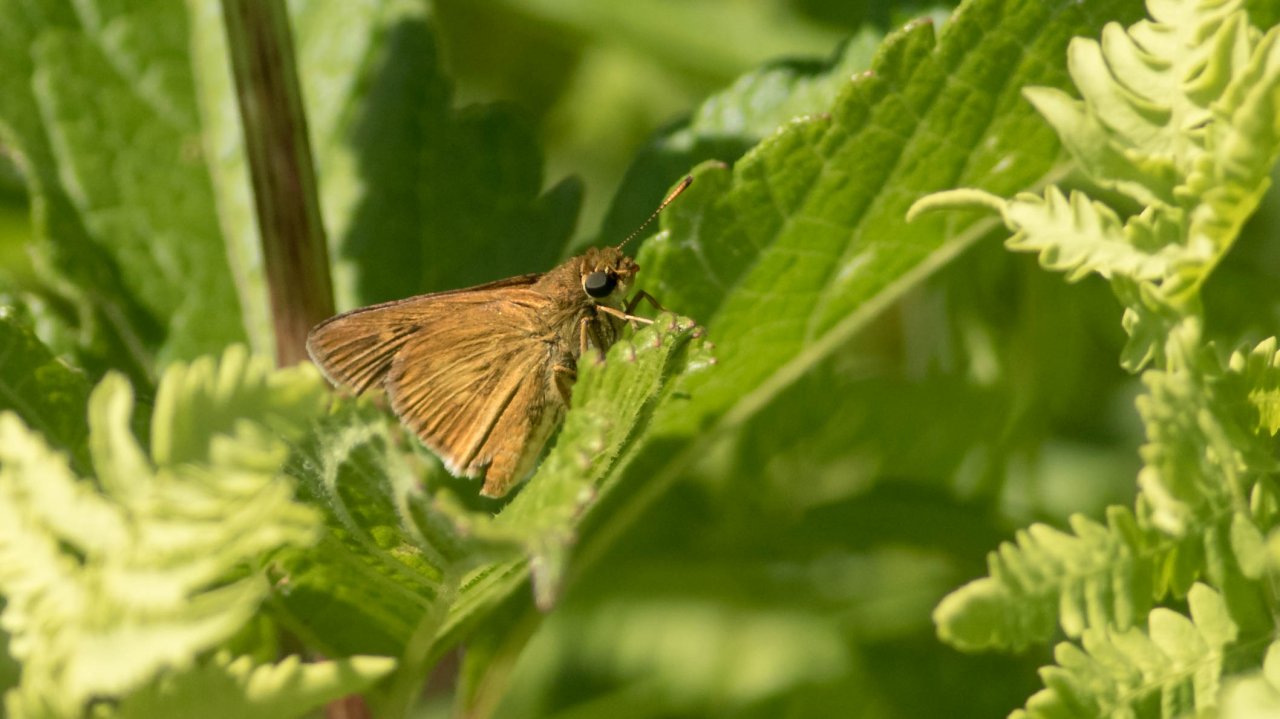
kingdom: Animalia
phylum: Arthropoda
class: Insecta
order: Lepidoptera
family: Hesperiidae
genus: Euphyes
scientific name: Euphyes conspicua
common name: Black Dash
